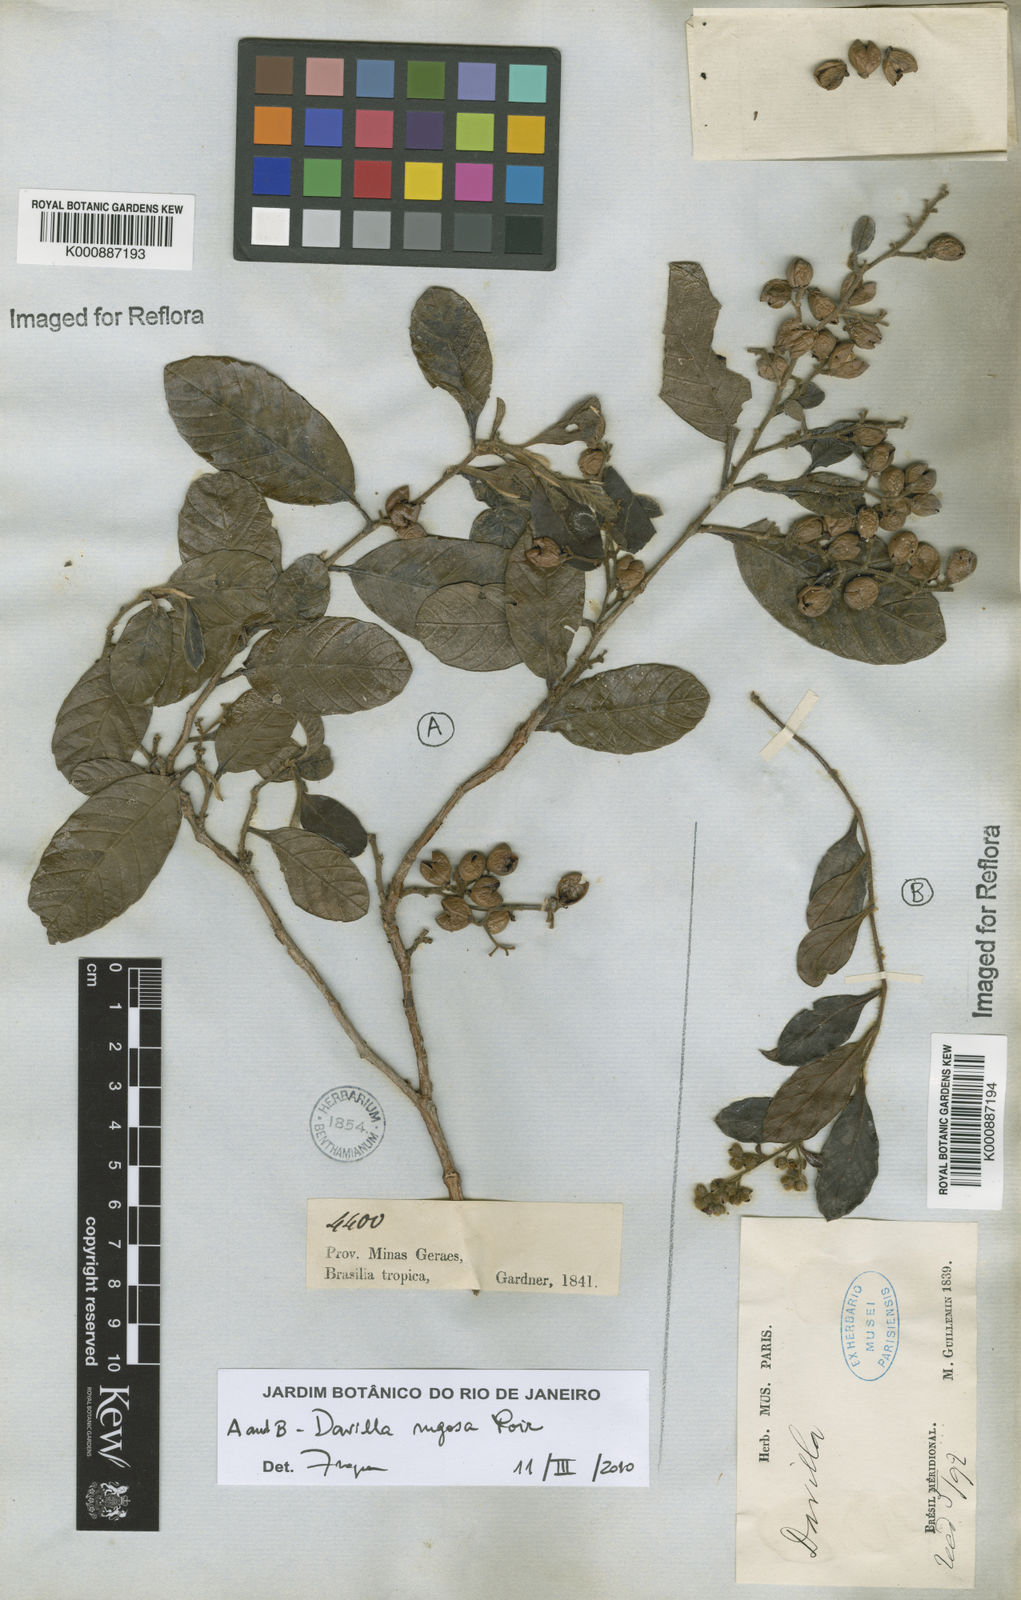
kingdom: Plantae
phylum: Tracheophyta
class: Magnoliopsida
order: Dilleniales
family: Dilleniaceae
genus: Davilla
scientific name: Davilla rugosa
